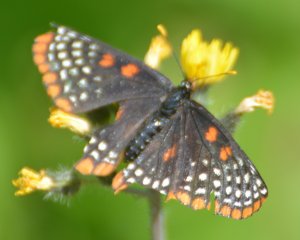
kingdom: Animalia
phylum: Arthropoda
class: Insecta
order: Lepidoptera
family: Nymphalidae
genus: Euphydryas
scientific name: Euphydryas phaeton
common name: Baltimore Checkerspot
